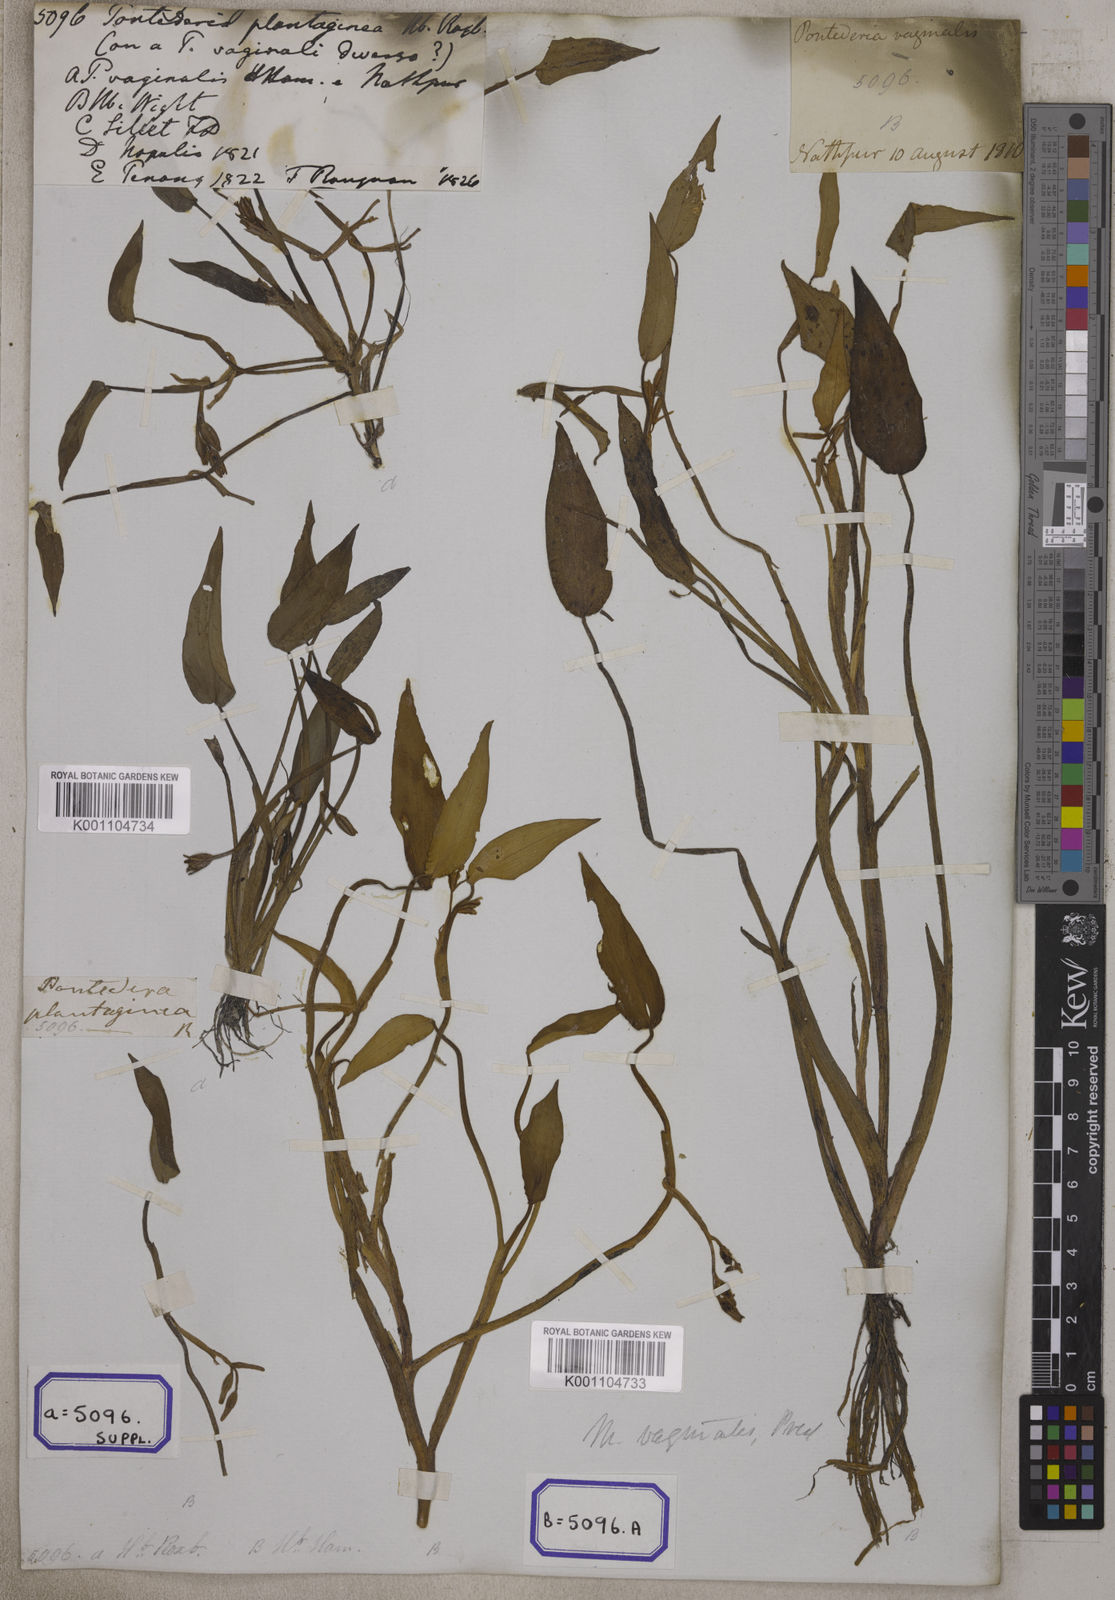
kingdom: Plantae
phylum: Tracheophyta
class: Liliopsida
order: Commelinales
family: Pontederiaceae
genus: Pontederia
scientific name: Pontederia plantaginea
